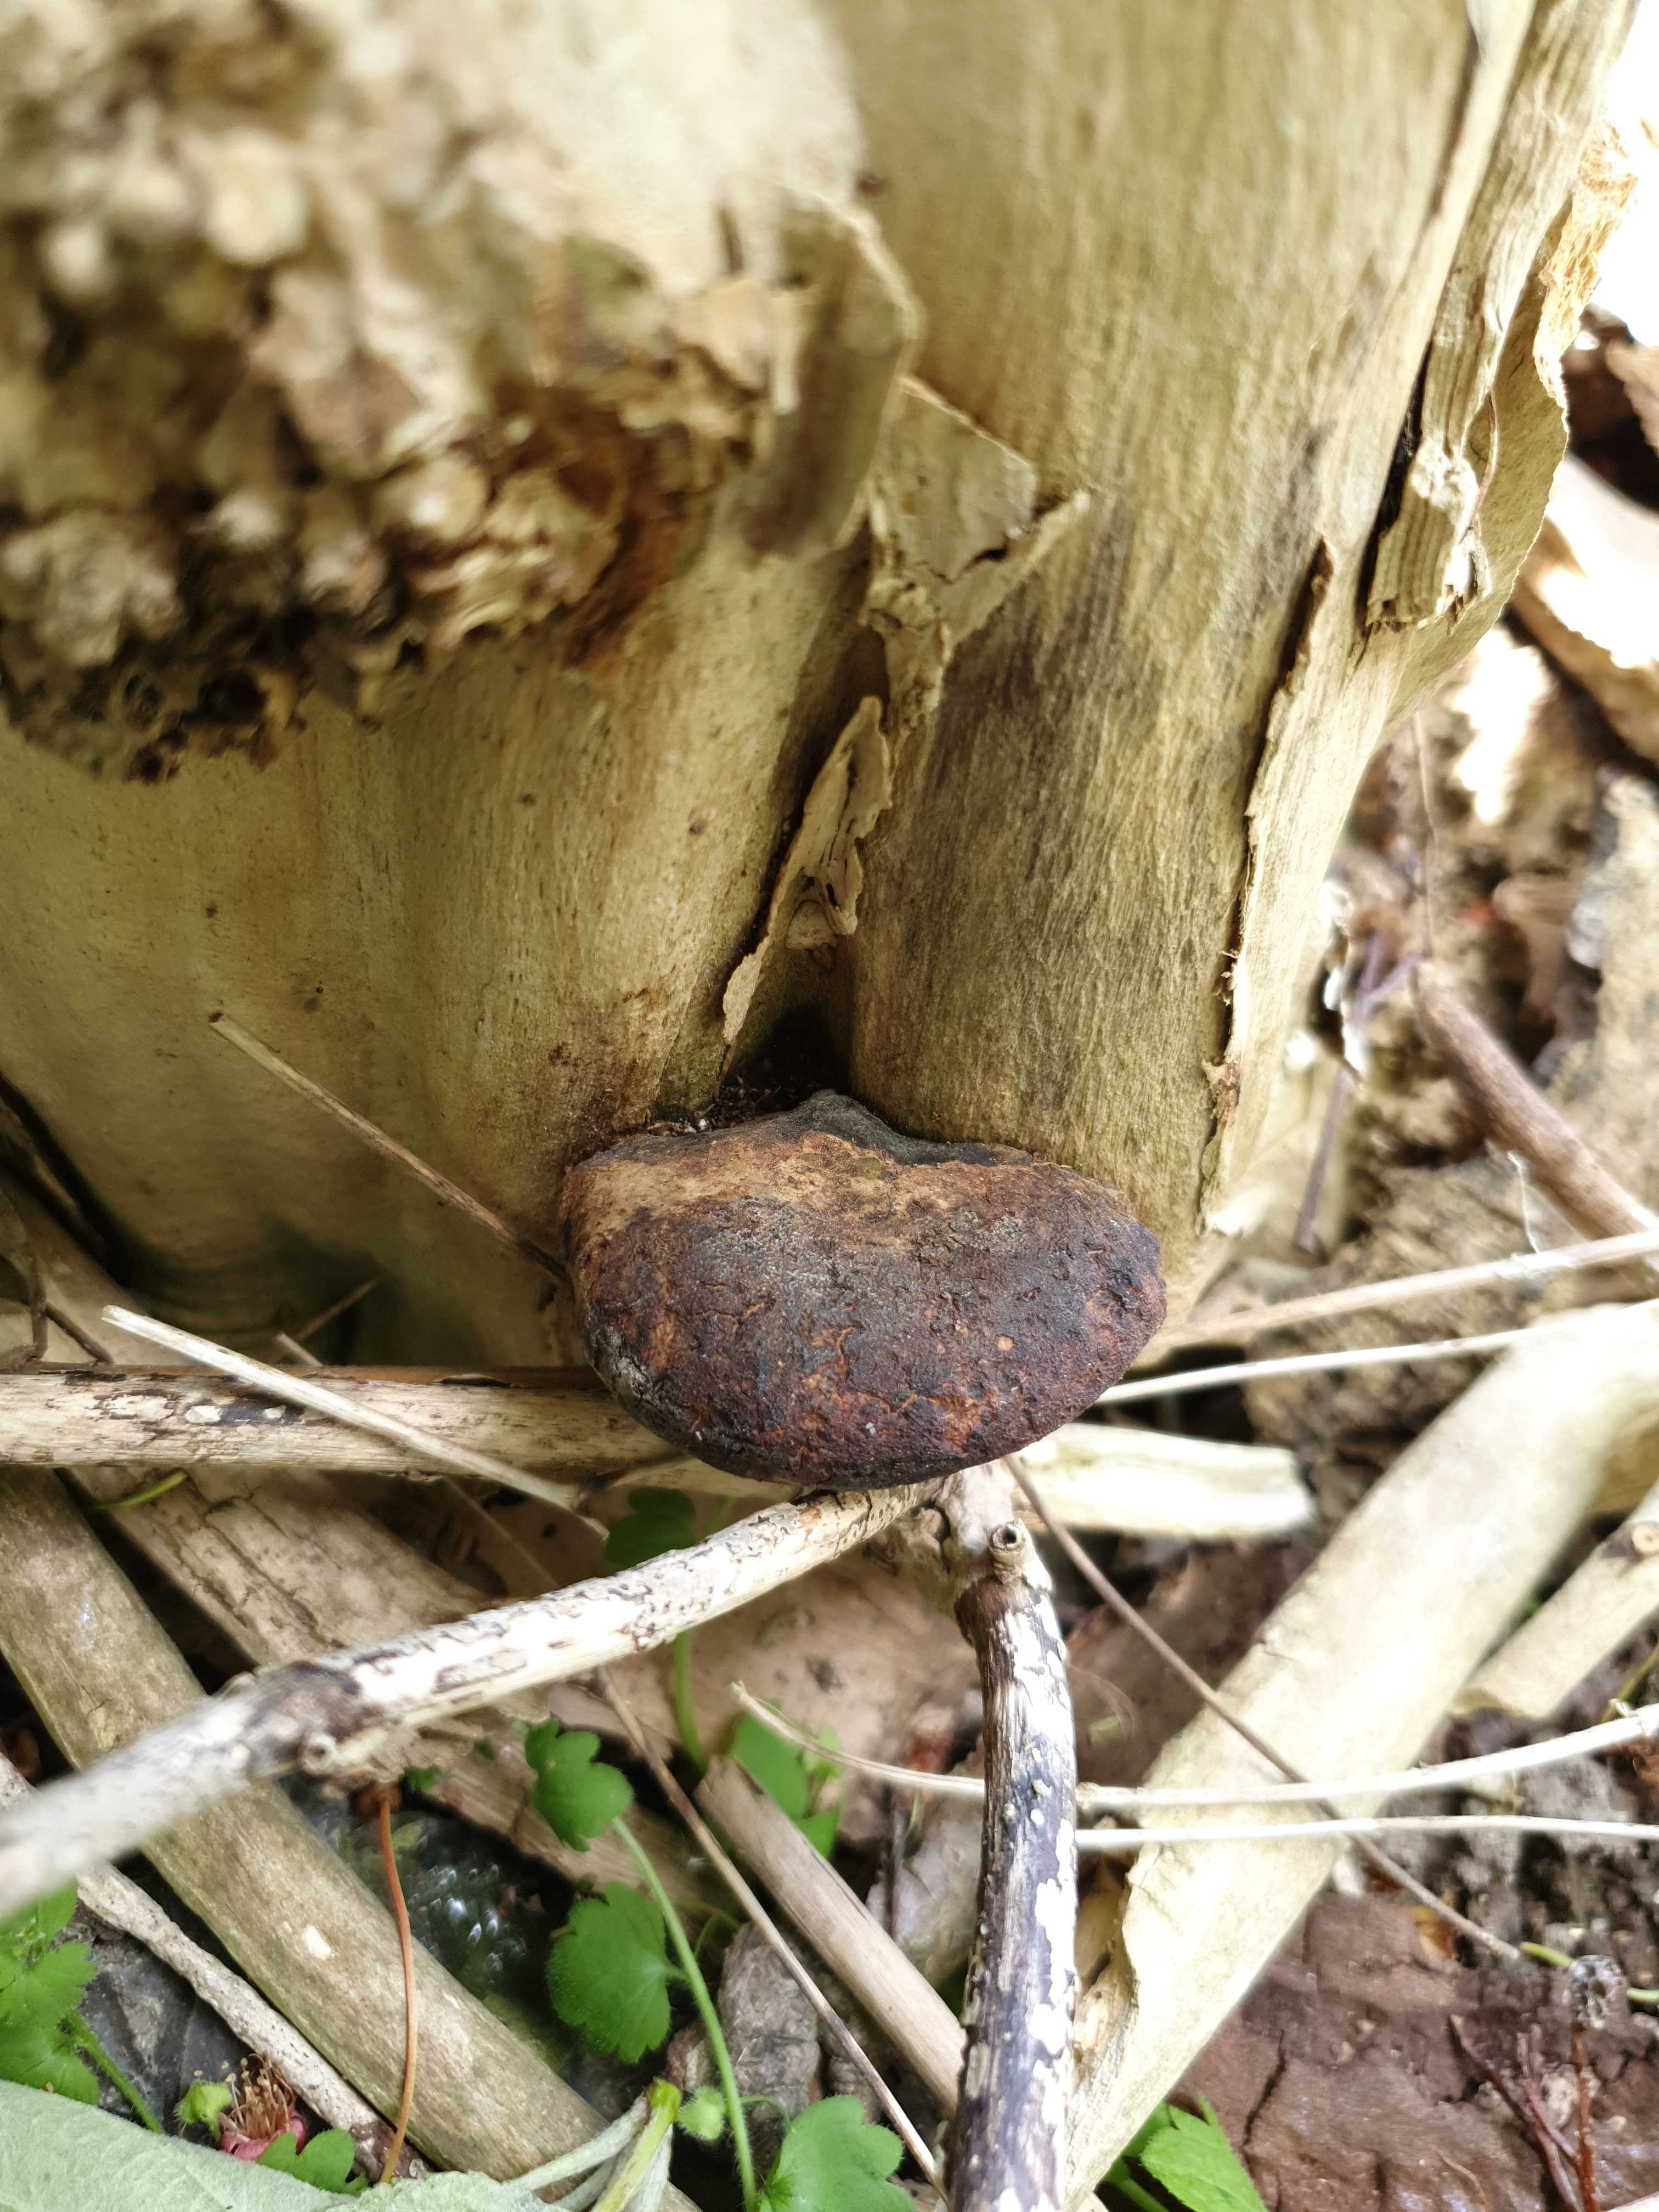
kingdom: Fungi
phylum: Basidiomycota
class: Agaricomycetes
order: Hymenochaetales
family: Hymenochaetaceae
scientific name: Hymenochaetaceae
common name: børstesvampfamilien
